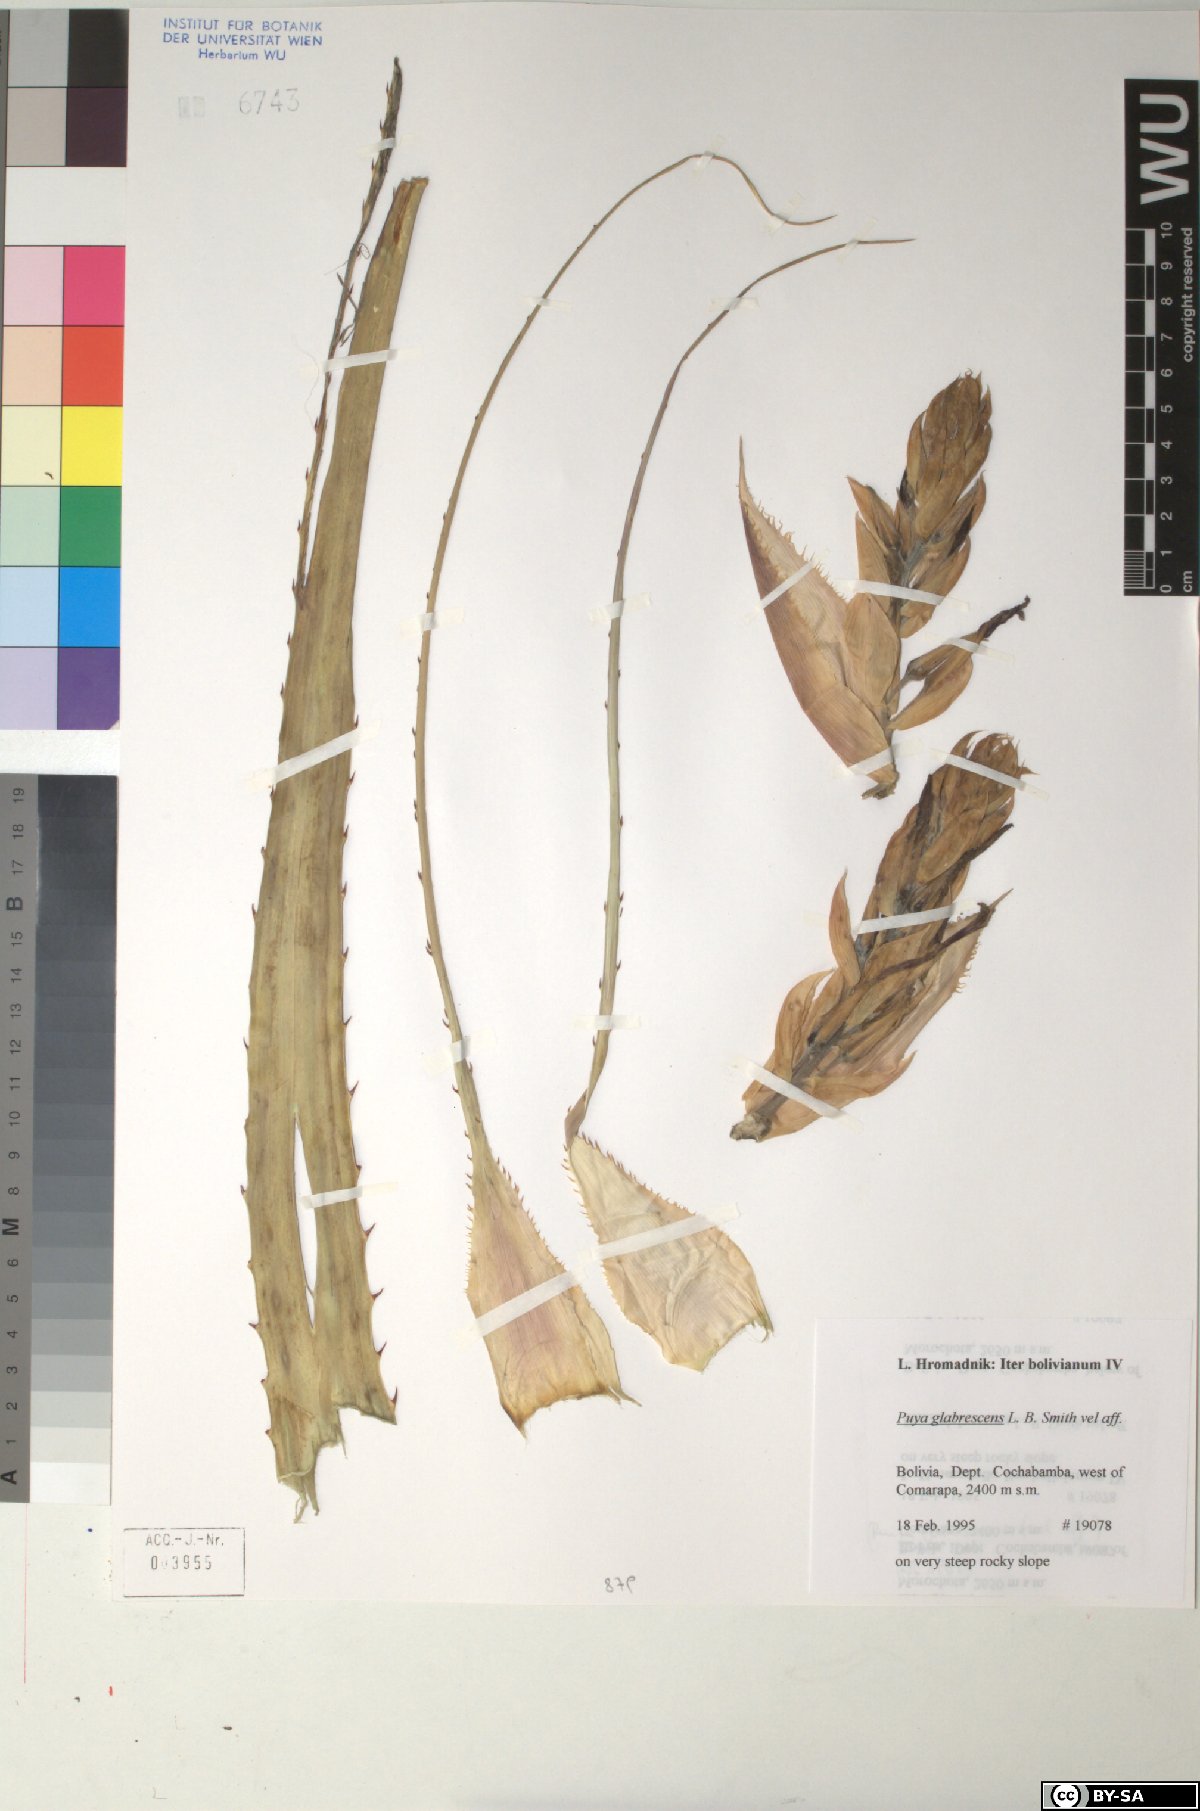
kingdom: Plantae
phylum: Tracheophyta
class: Liliopsida
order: Poales
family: Bromeliaceae
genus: Puya
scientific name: Puya glabrescens
